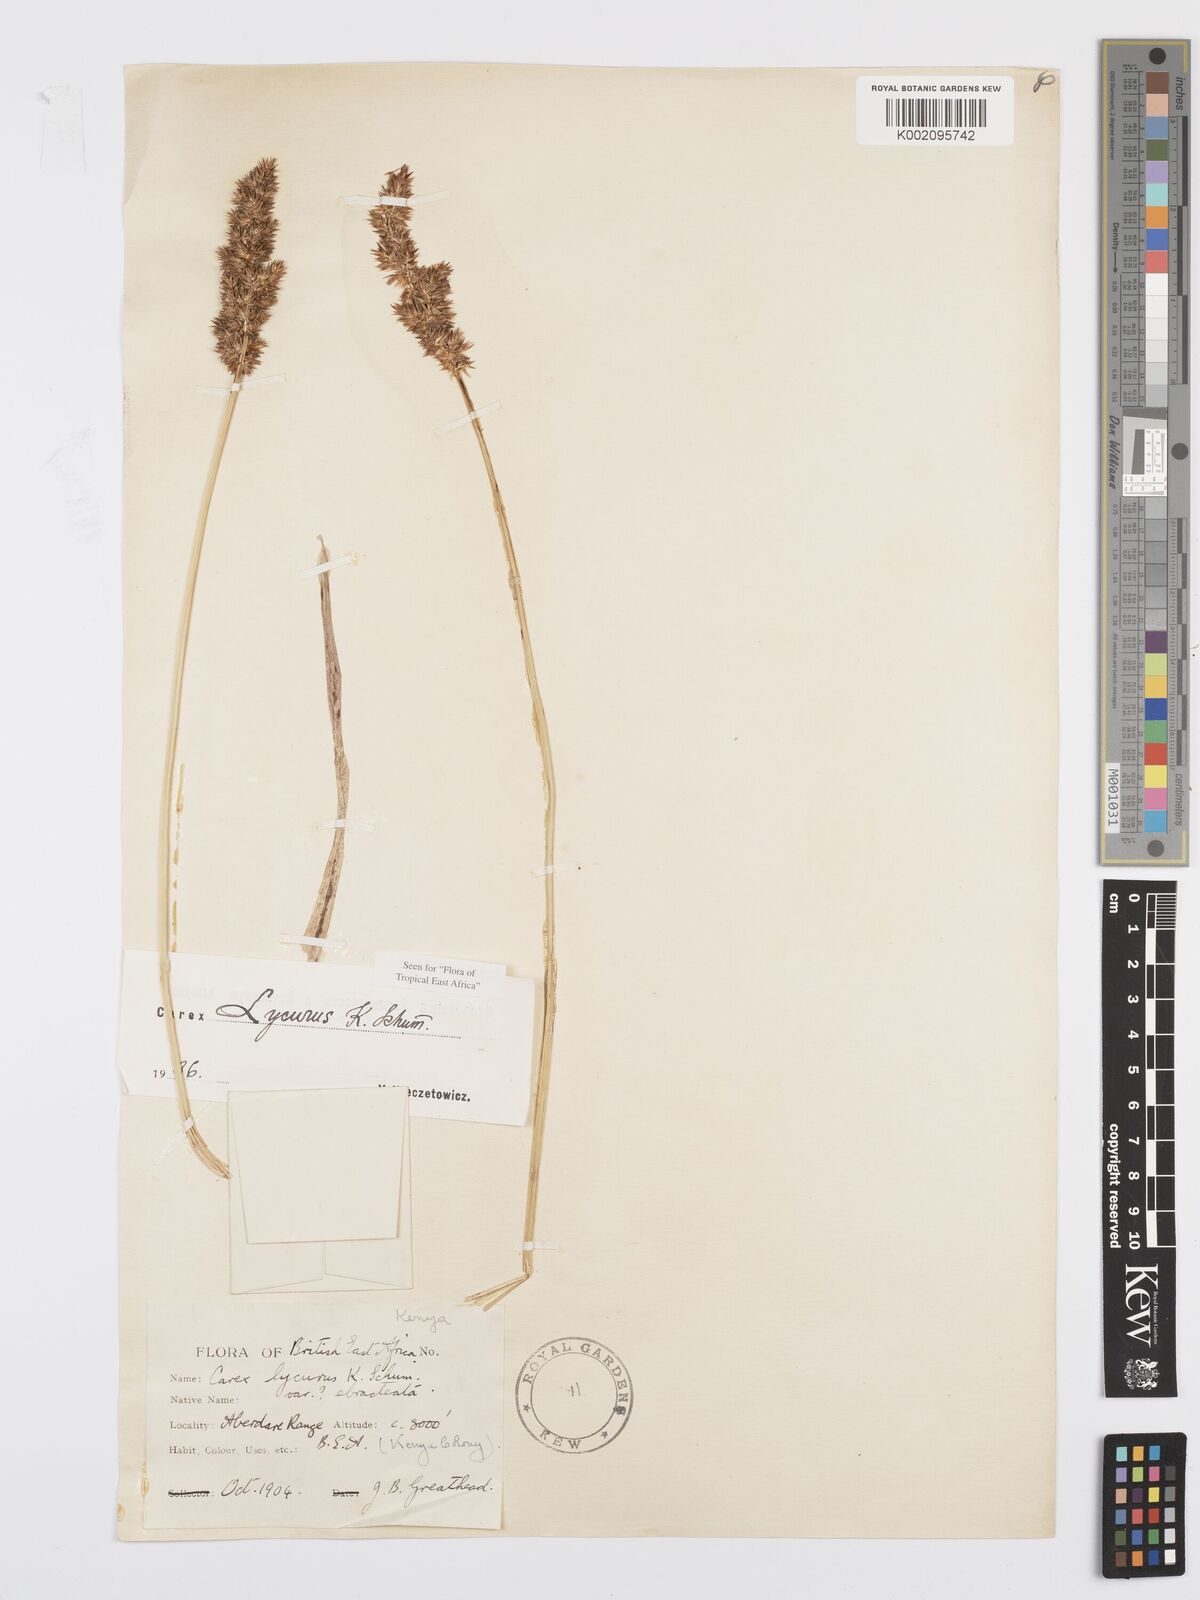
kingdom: Plantae
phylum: Tracheophyta
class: Liliopsida
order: Poales
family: Cyperaceae
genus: Carex
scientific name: Carex lycurus
